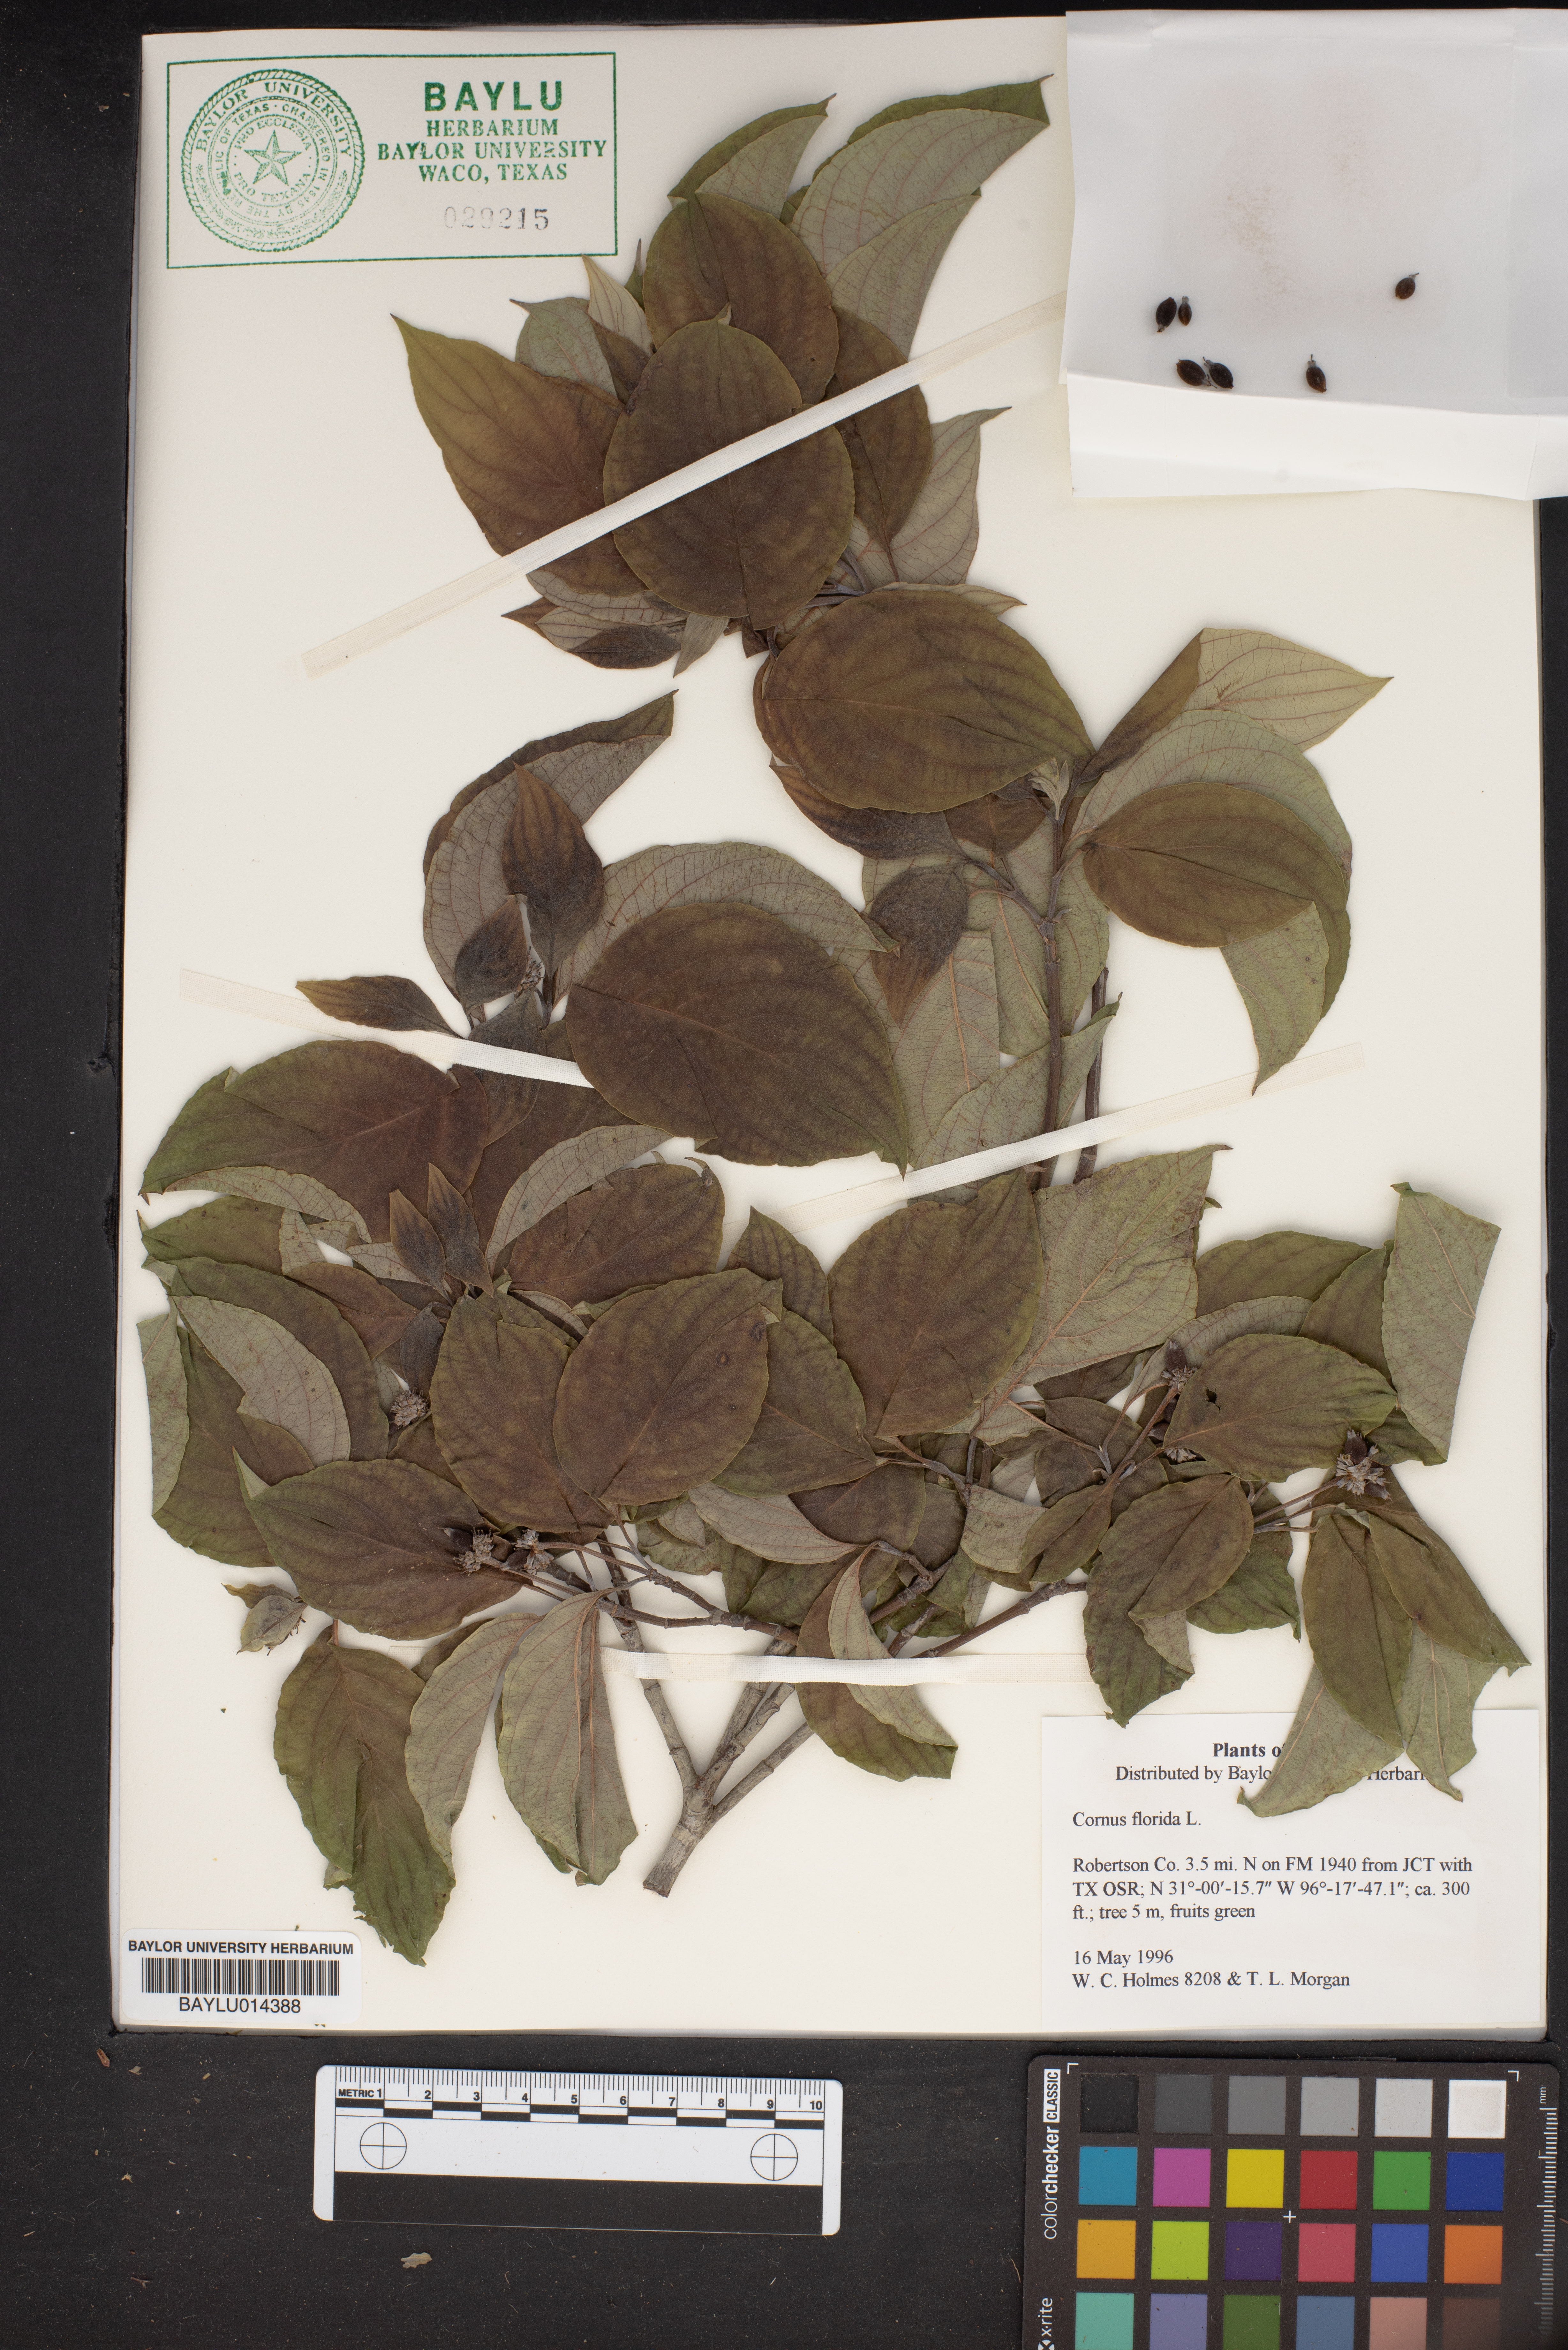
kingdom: Plantae
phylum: Tracheophyta
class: Magnoliopsida
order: Cornales
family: Cornaceae
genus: Cornus
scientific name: Cornus florida
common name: Flowering dogwood
